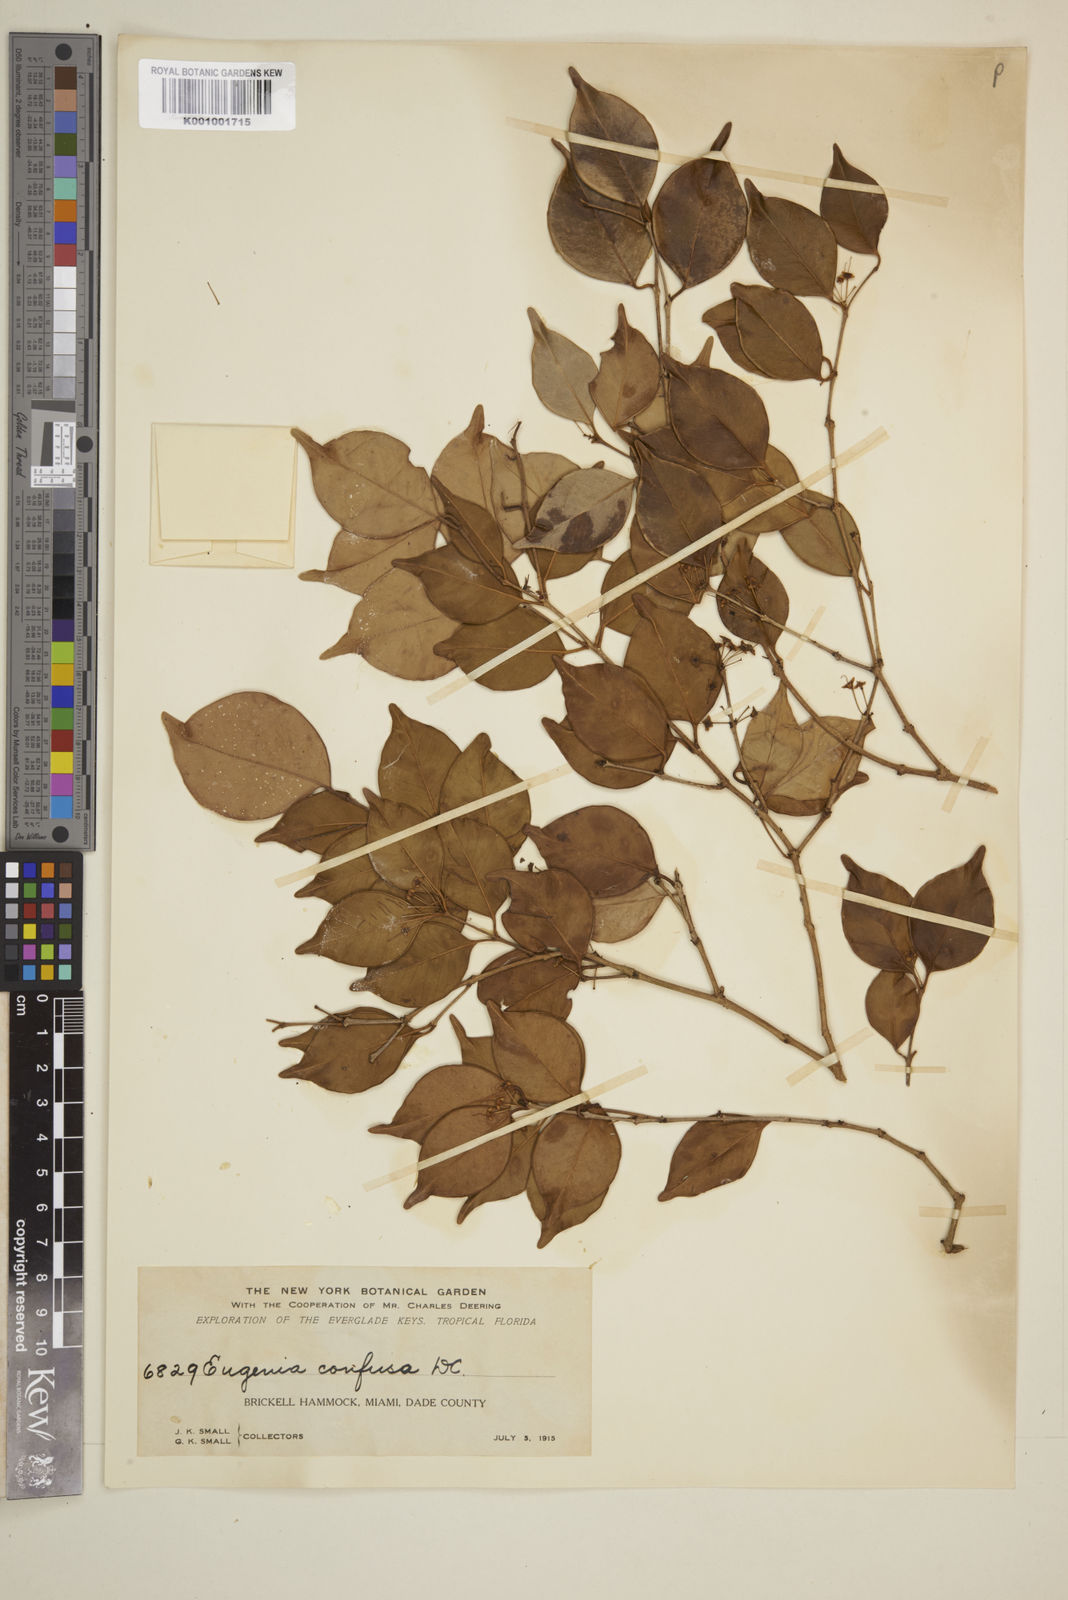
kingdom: Plantae
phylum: Tracheophyta
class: Magnoliopsida
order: Myrtales
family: Myrtaceae
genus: Eugenia
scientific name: Eugenia confusa
